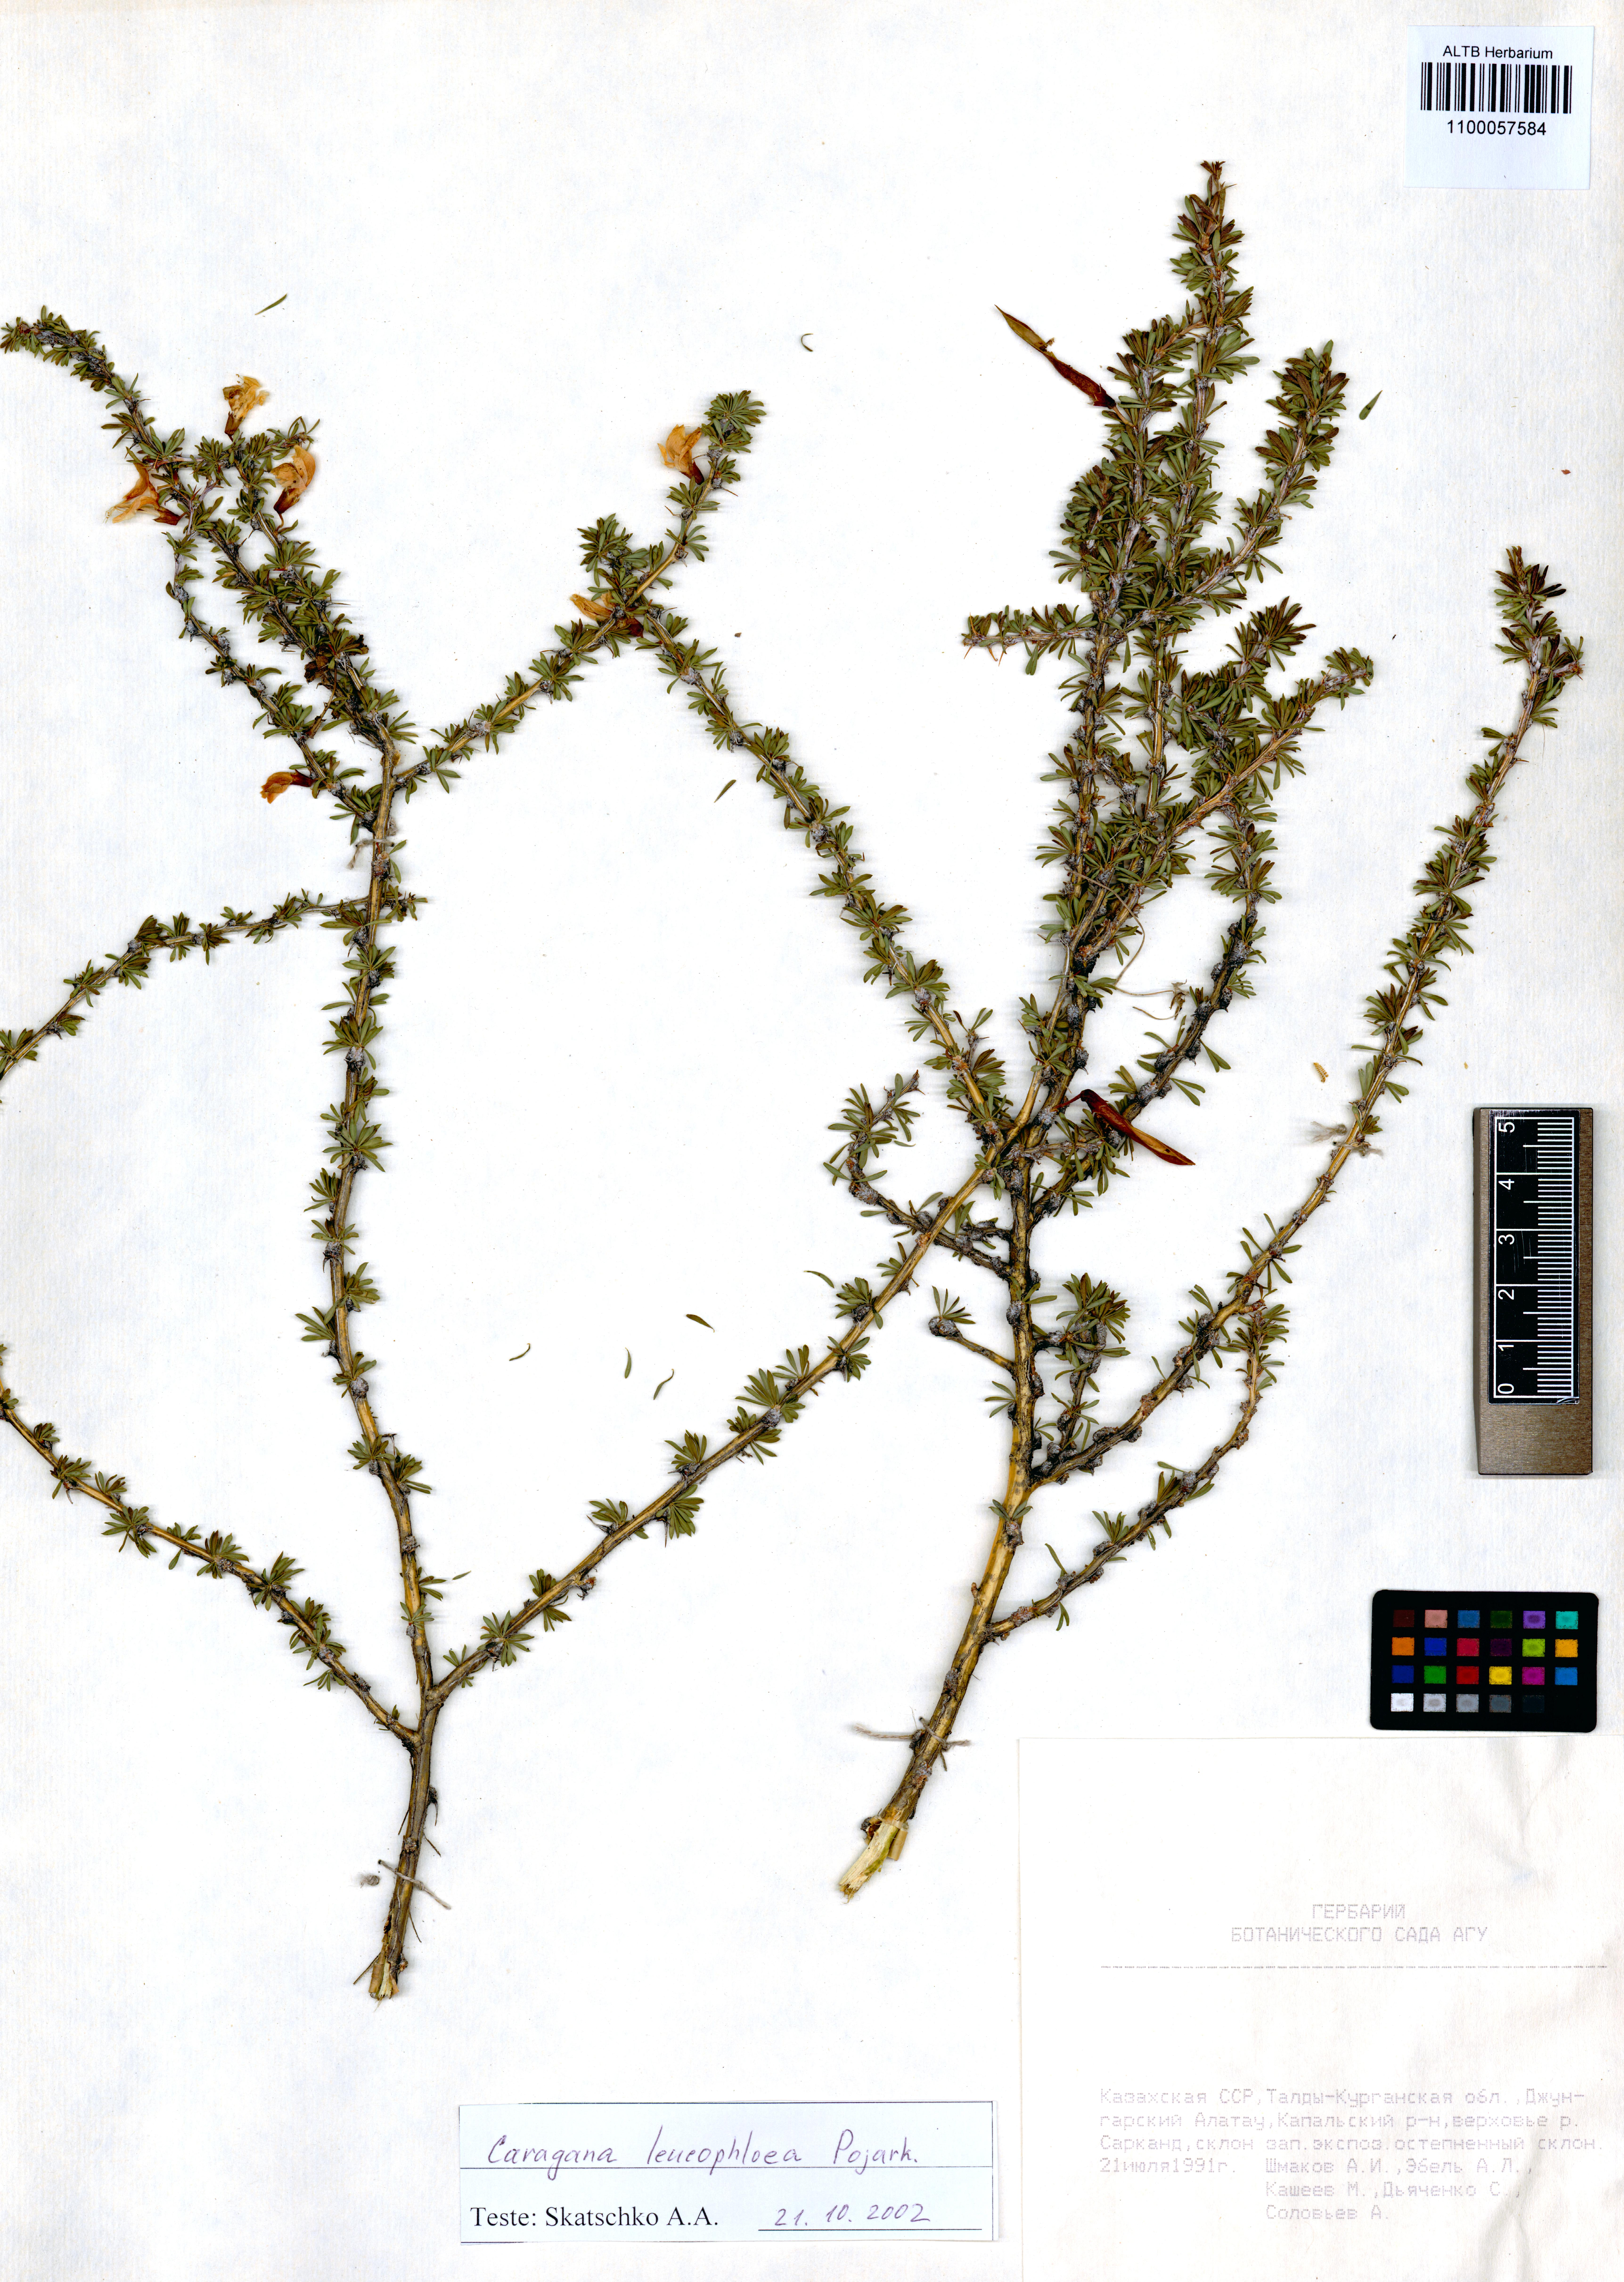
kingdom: Plantae
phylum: Tracheophyta
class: Magnoliopsida
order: Fabales
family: Fabaceae
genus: Caragana
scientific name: Caragana leucophloea
